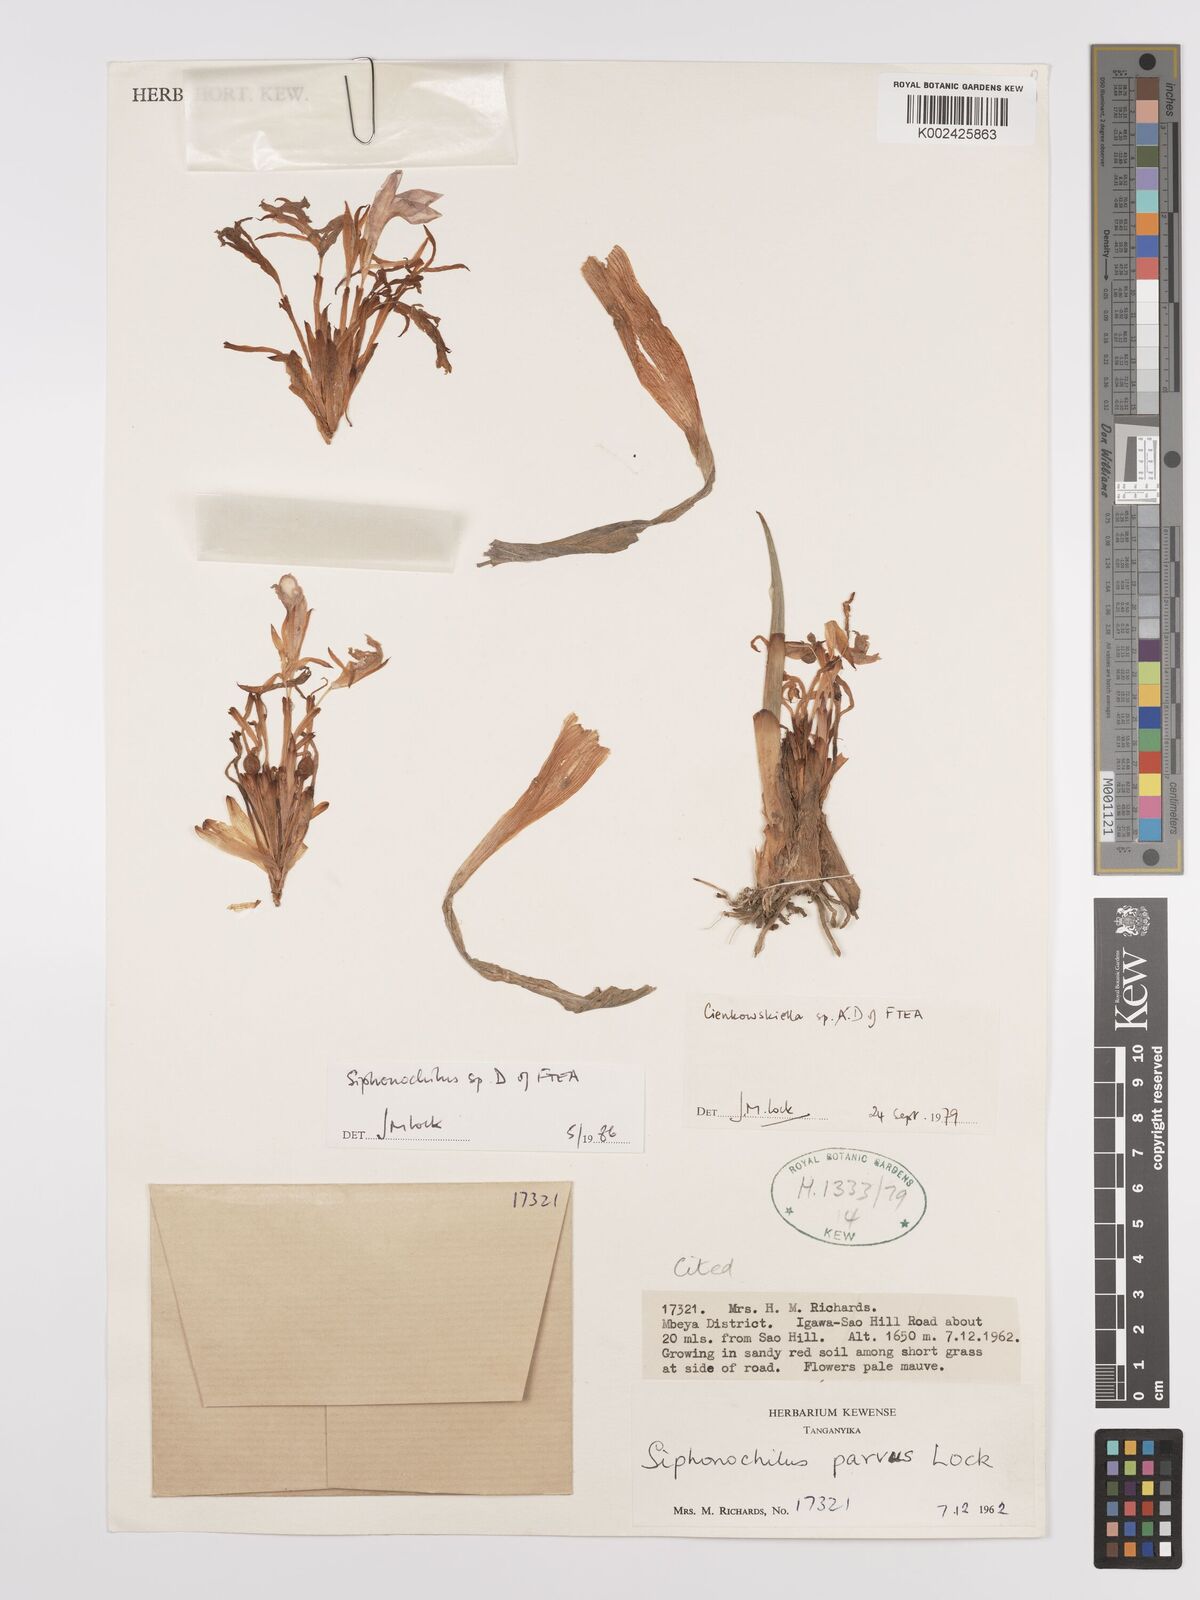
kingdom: Plantae
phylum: Tracheophyta
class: Liliopsida
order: Zingiberales
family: Zingiberaceae
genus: Siphonochilus
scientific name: Siphonochilus parvus
